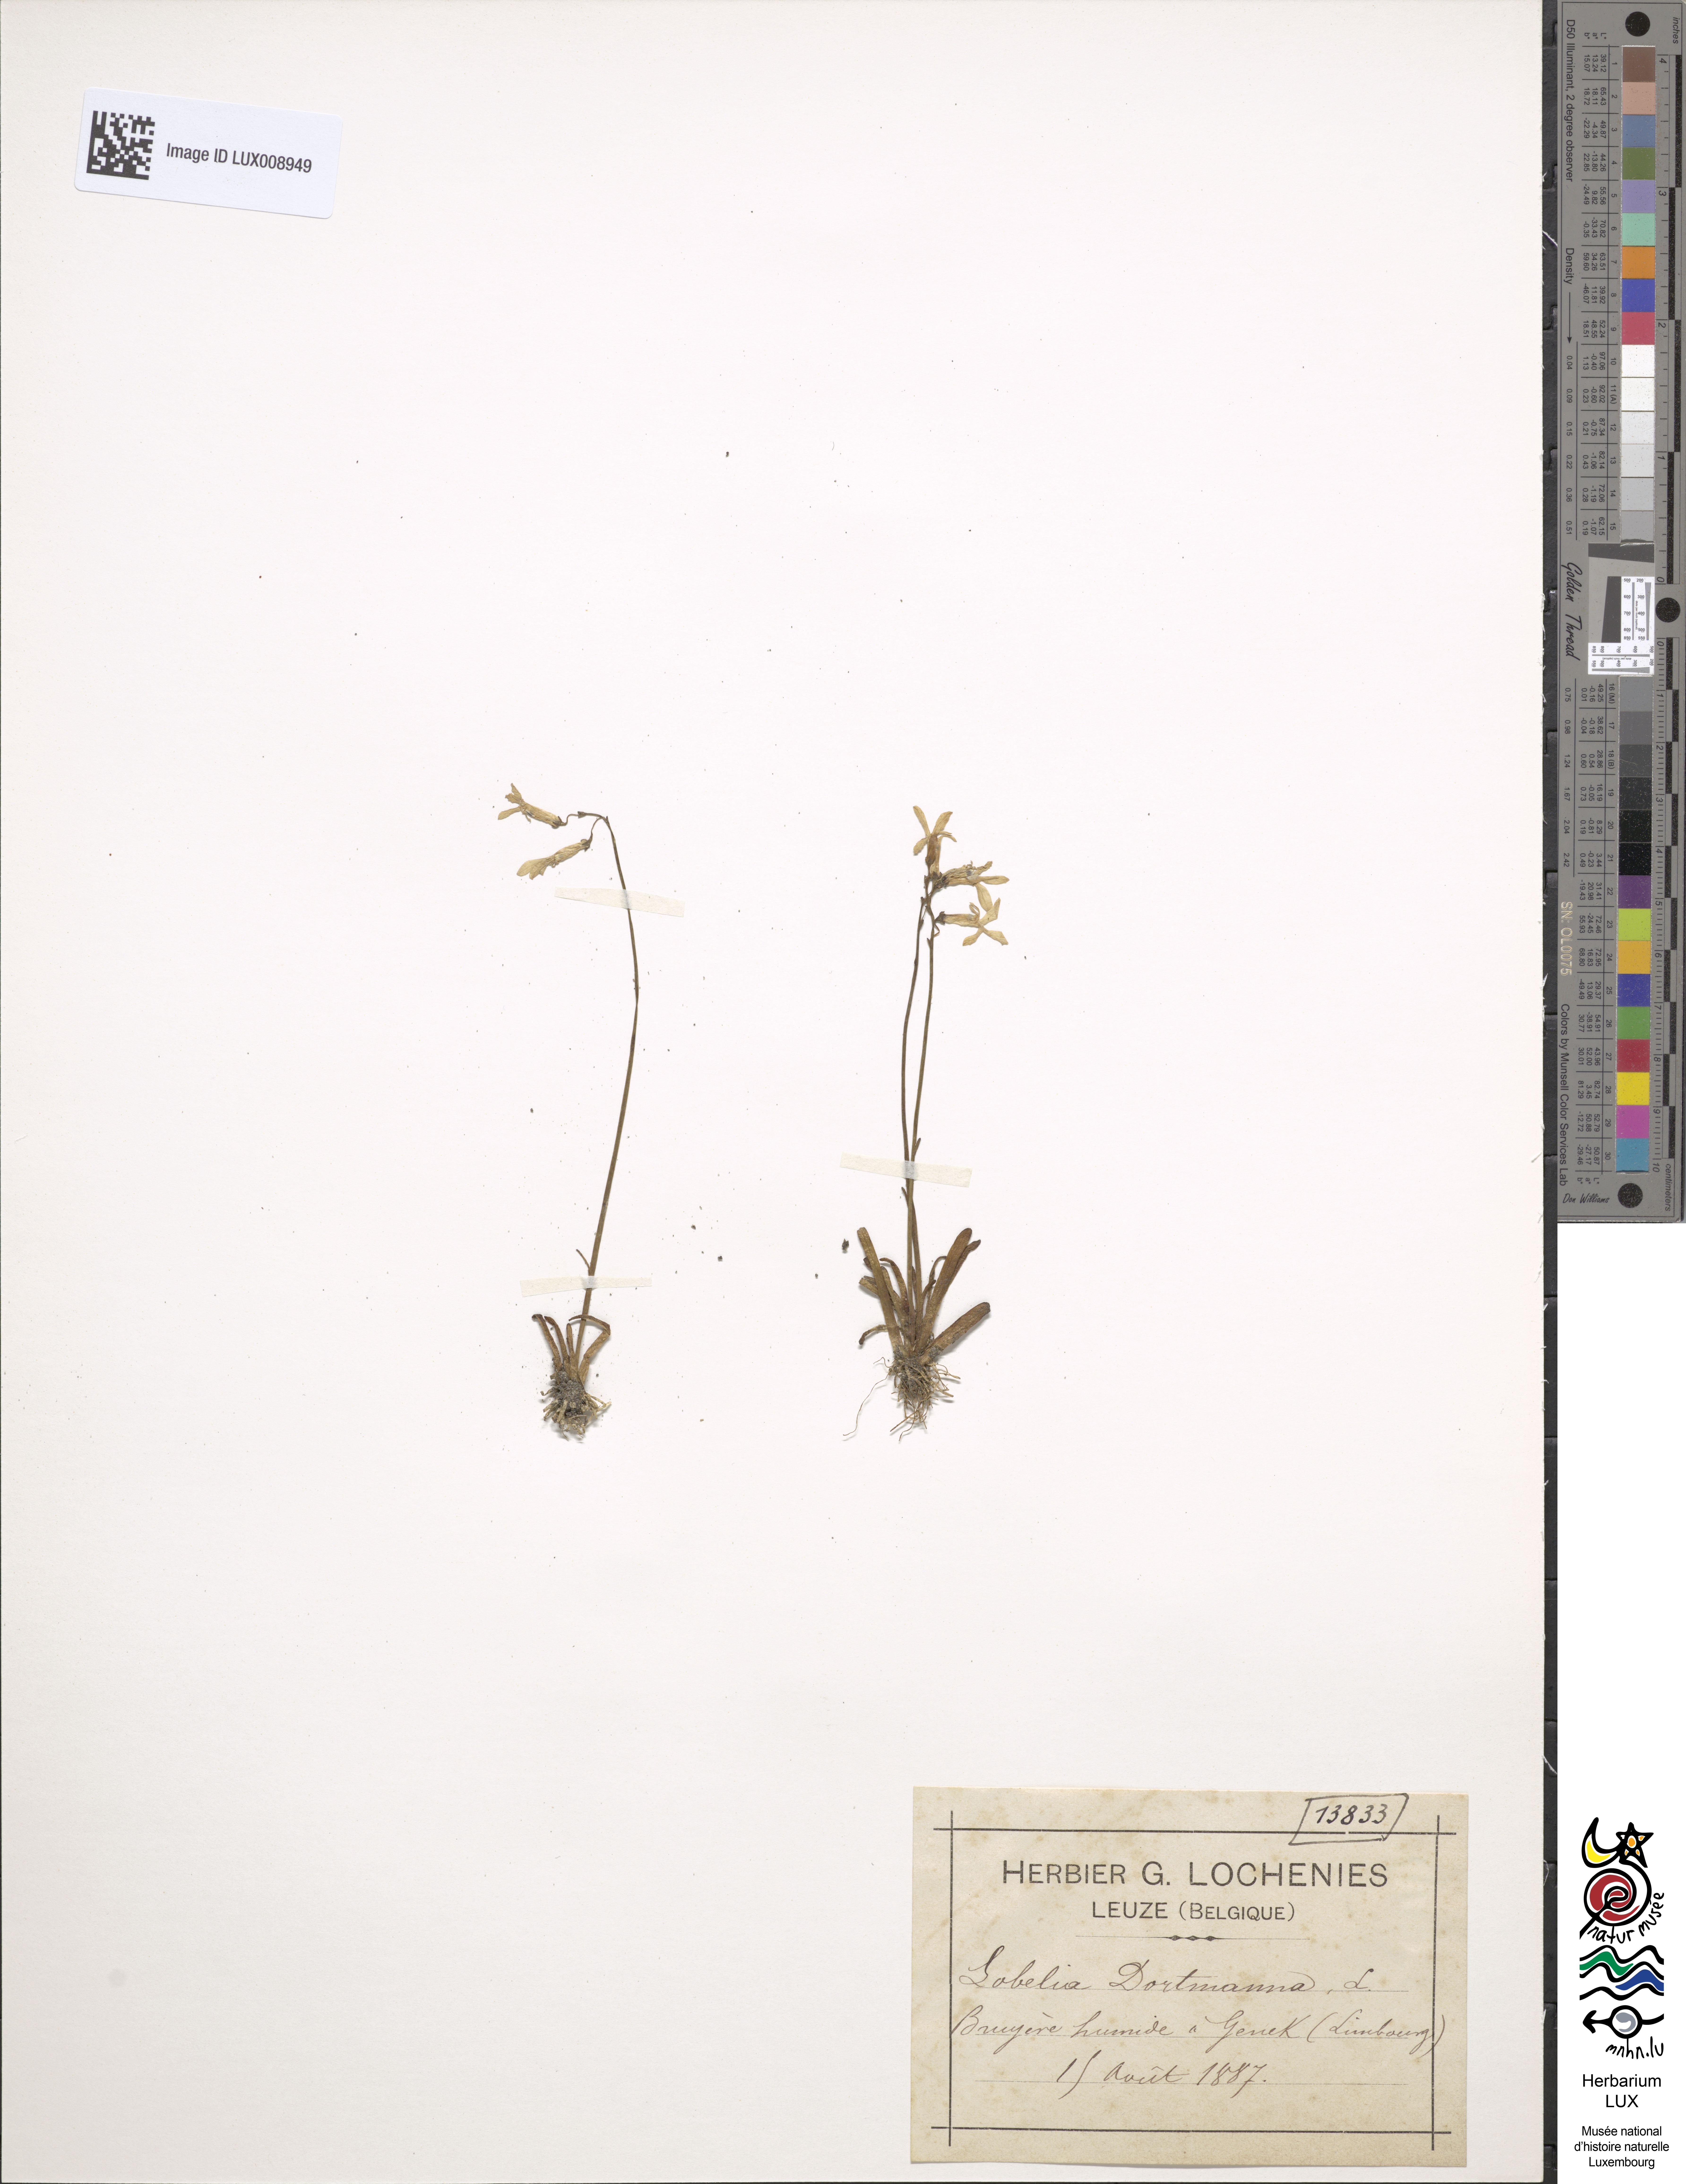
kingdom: Plantae
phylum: Tracheophyta
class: Magnoliopsida
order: Asterales
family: Campanulaceae
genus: Lobelia
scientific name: Lobelia dortmanna
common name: Water lobelia
